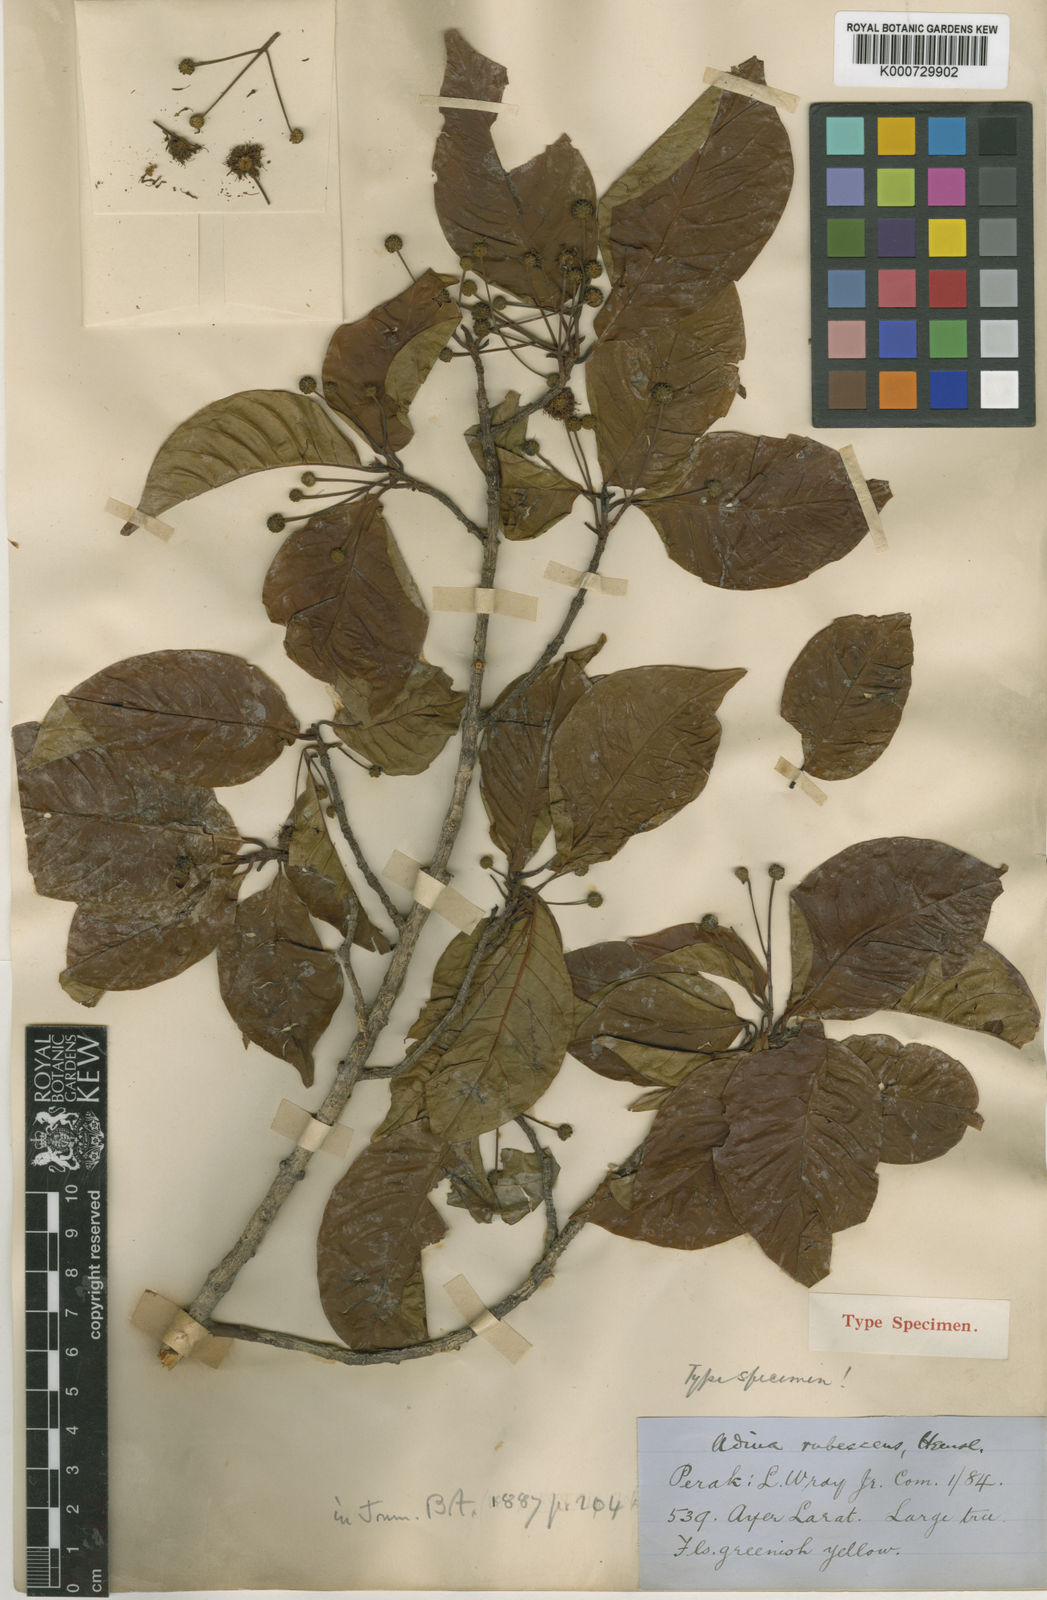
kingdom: Plantae
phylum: Tracheophyta
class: Magnoliopsida
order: Gentianales
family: Rubiaceae
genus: Adina
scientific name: Adina eurhyncha
